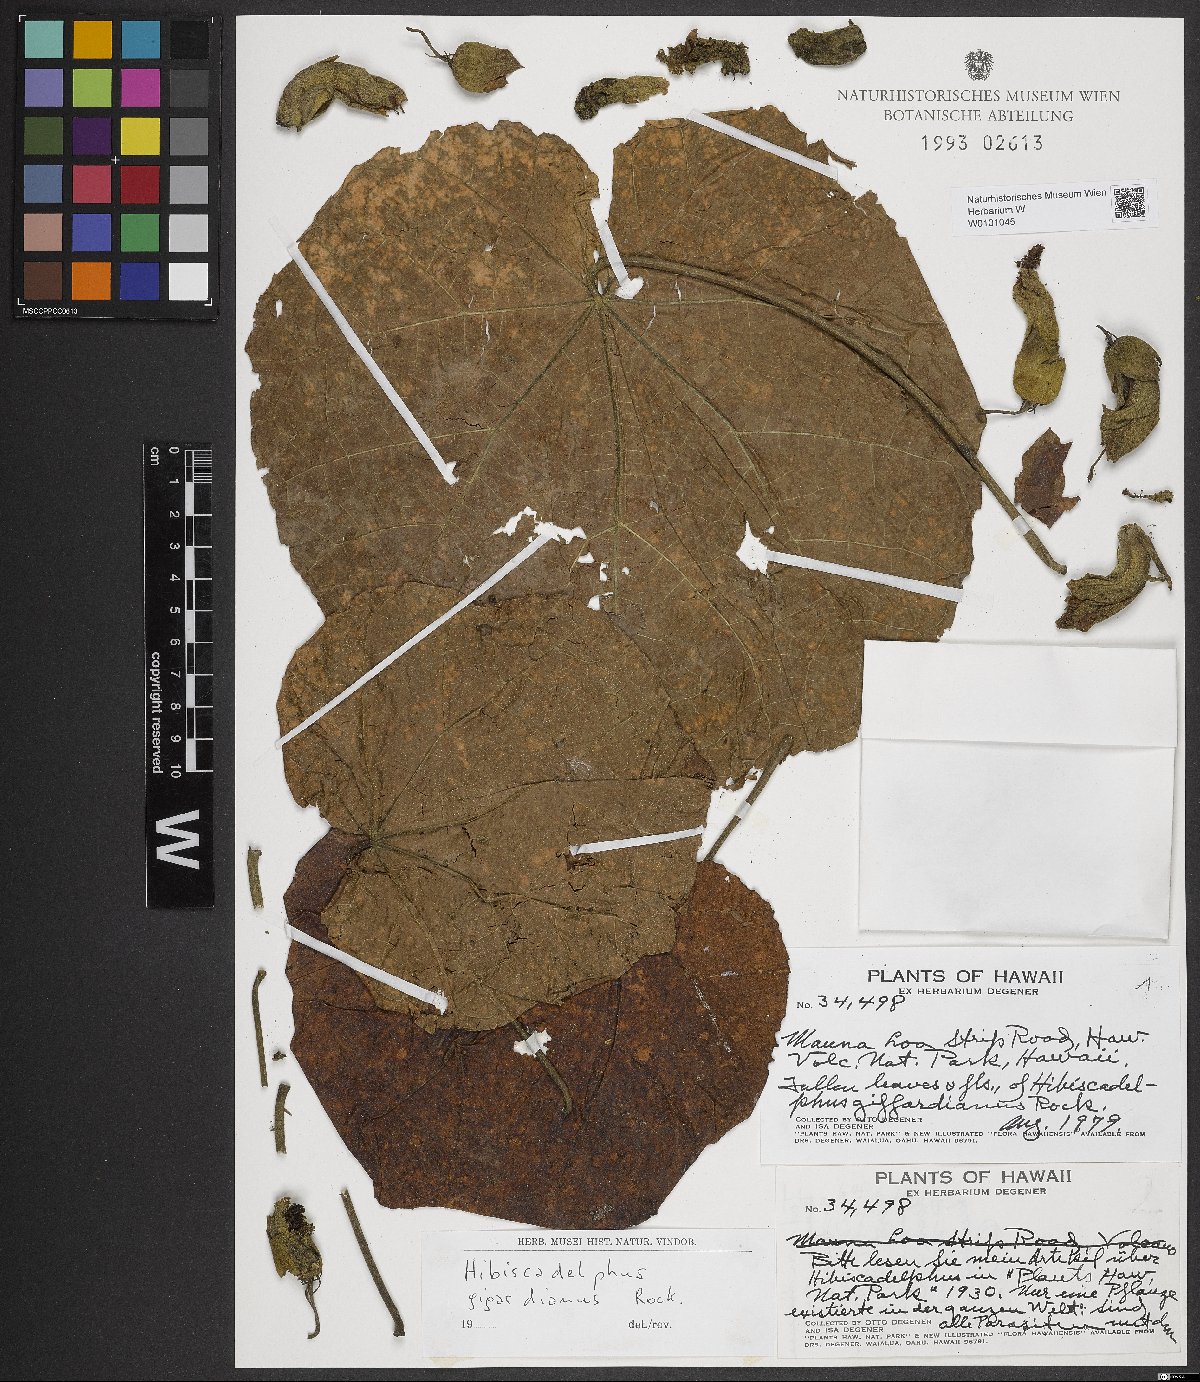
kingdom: Plantae
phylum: Tracheophyta
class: Magnoliopsida
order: Malvales
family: Malvaceae
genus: Hibiscadelphus
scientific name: Hibiscadelphus giffardianus
